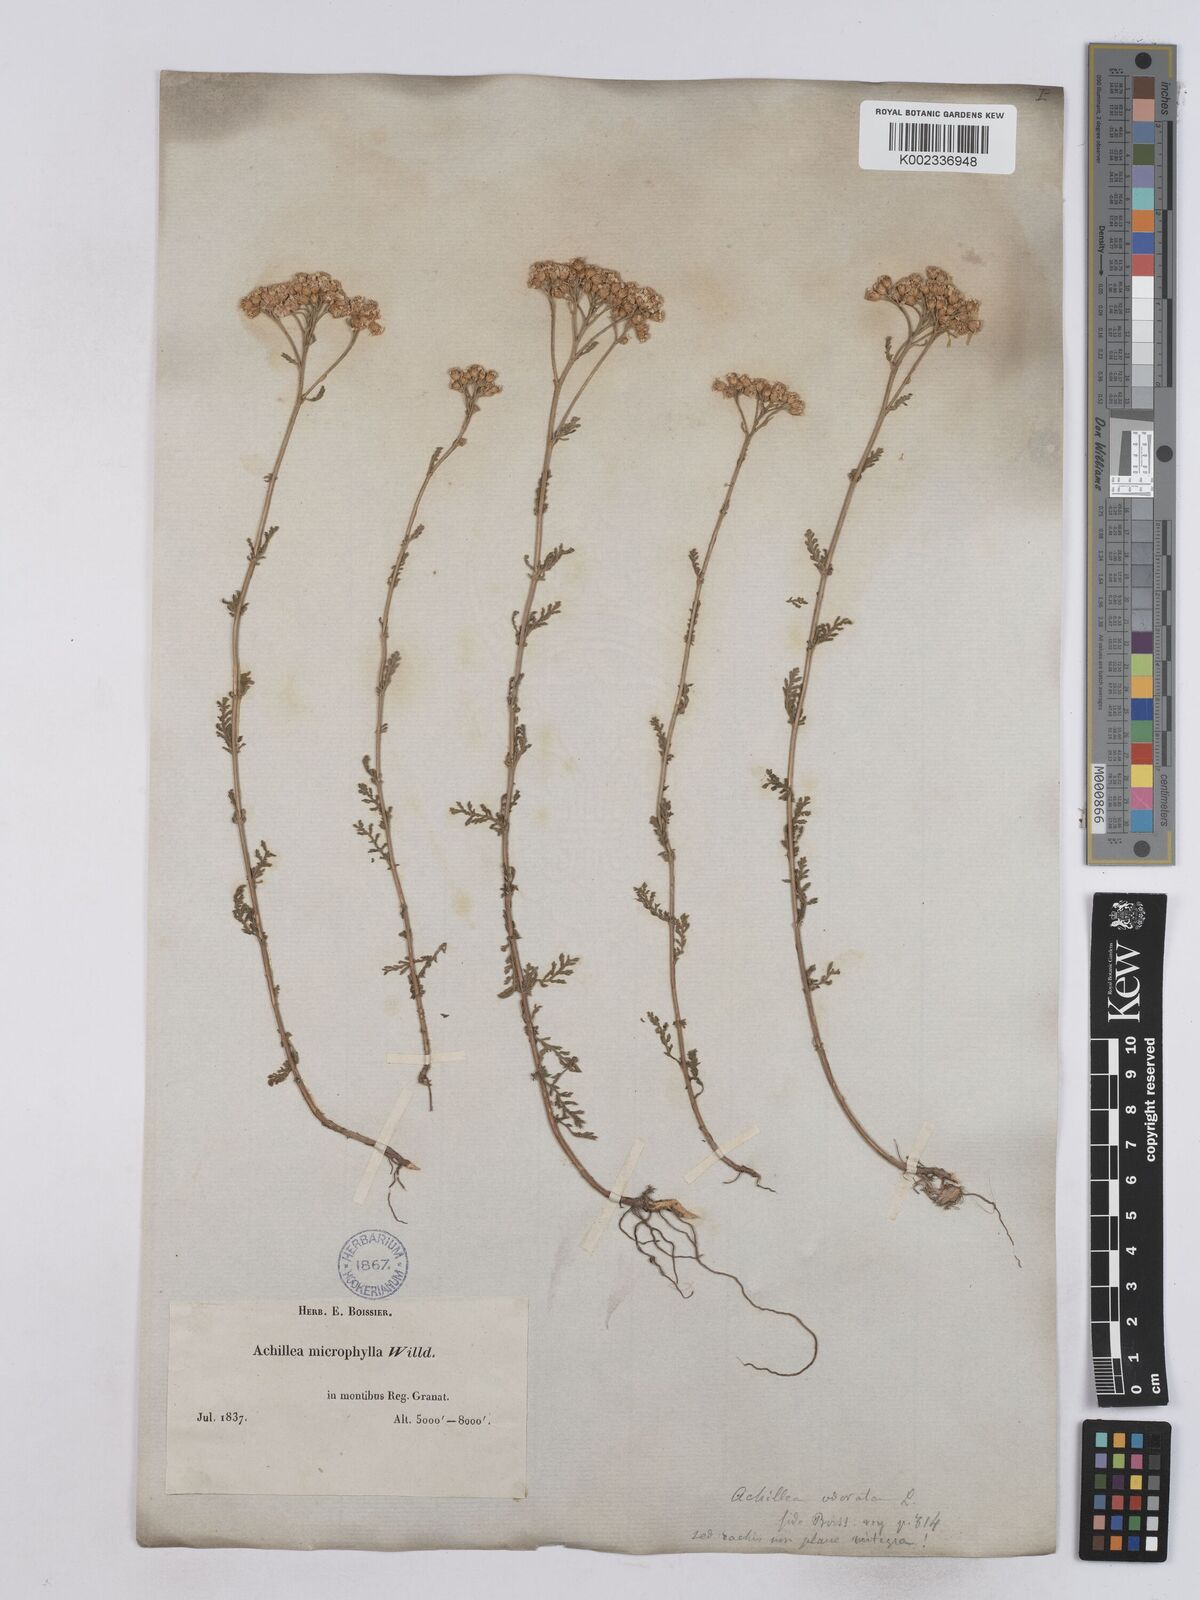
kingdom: Plantae
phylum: Tracheophyta
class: Magnoliopsida
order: Asterales
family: Asteraceae
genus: Achillea
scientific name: Achillea odorata
